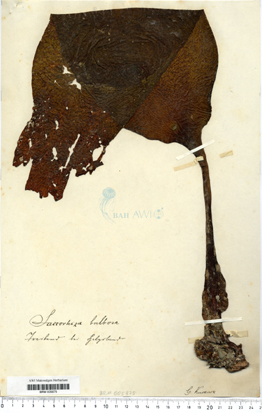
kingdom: Chromista
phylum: Ochrophyta
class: Phaeophyceae
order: Tilopteridales
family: Phyllariaceae
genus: Saccorhiza
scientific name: Saccorhiza polyschides
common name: Furbelows
